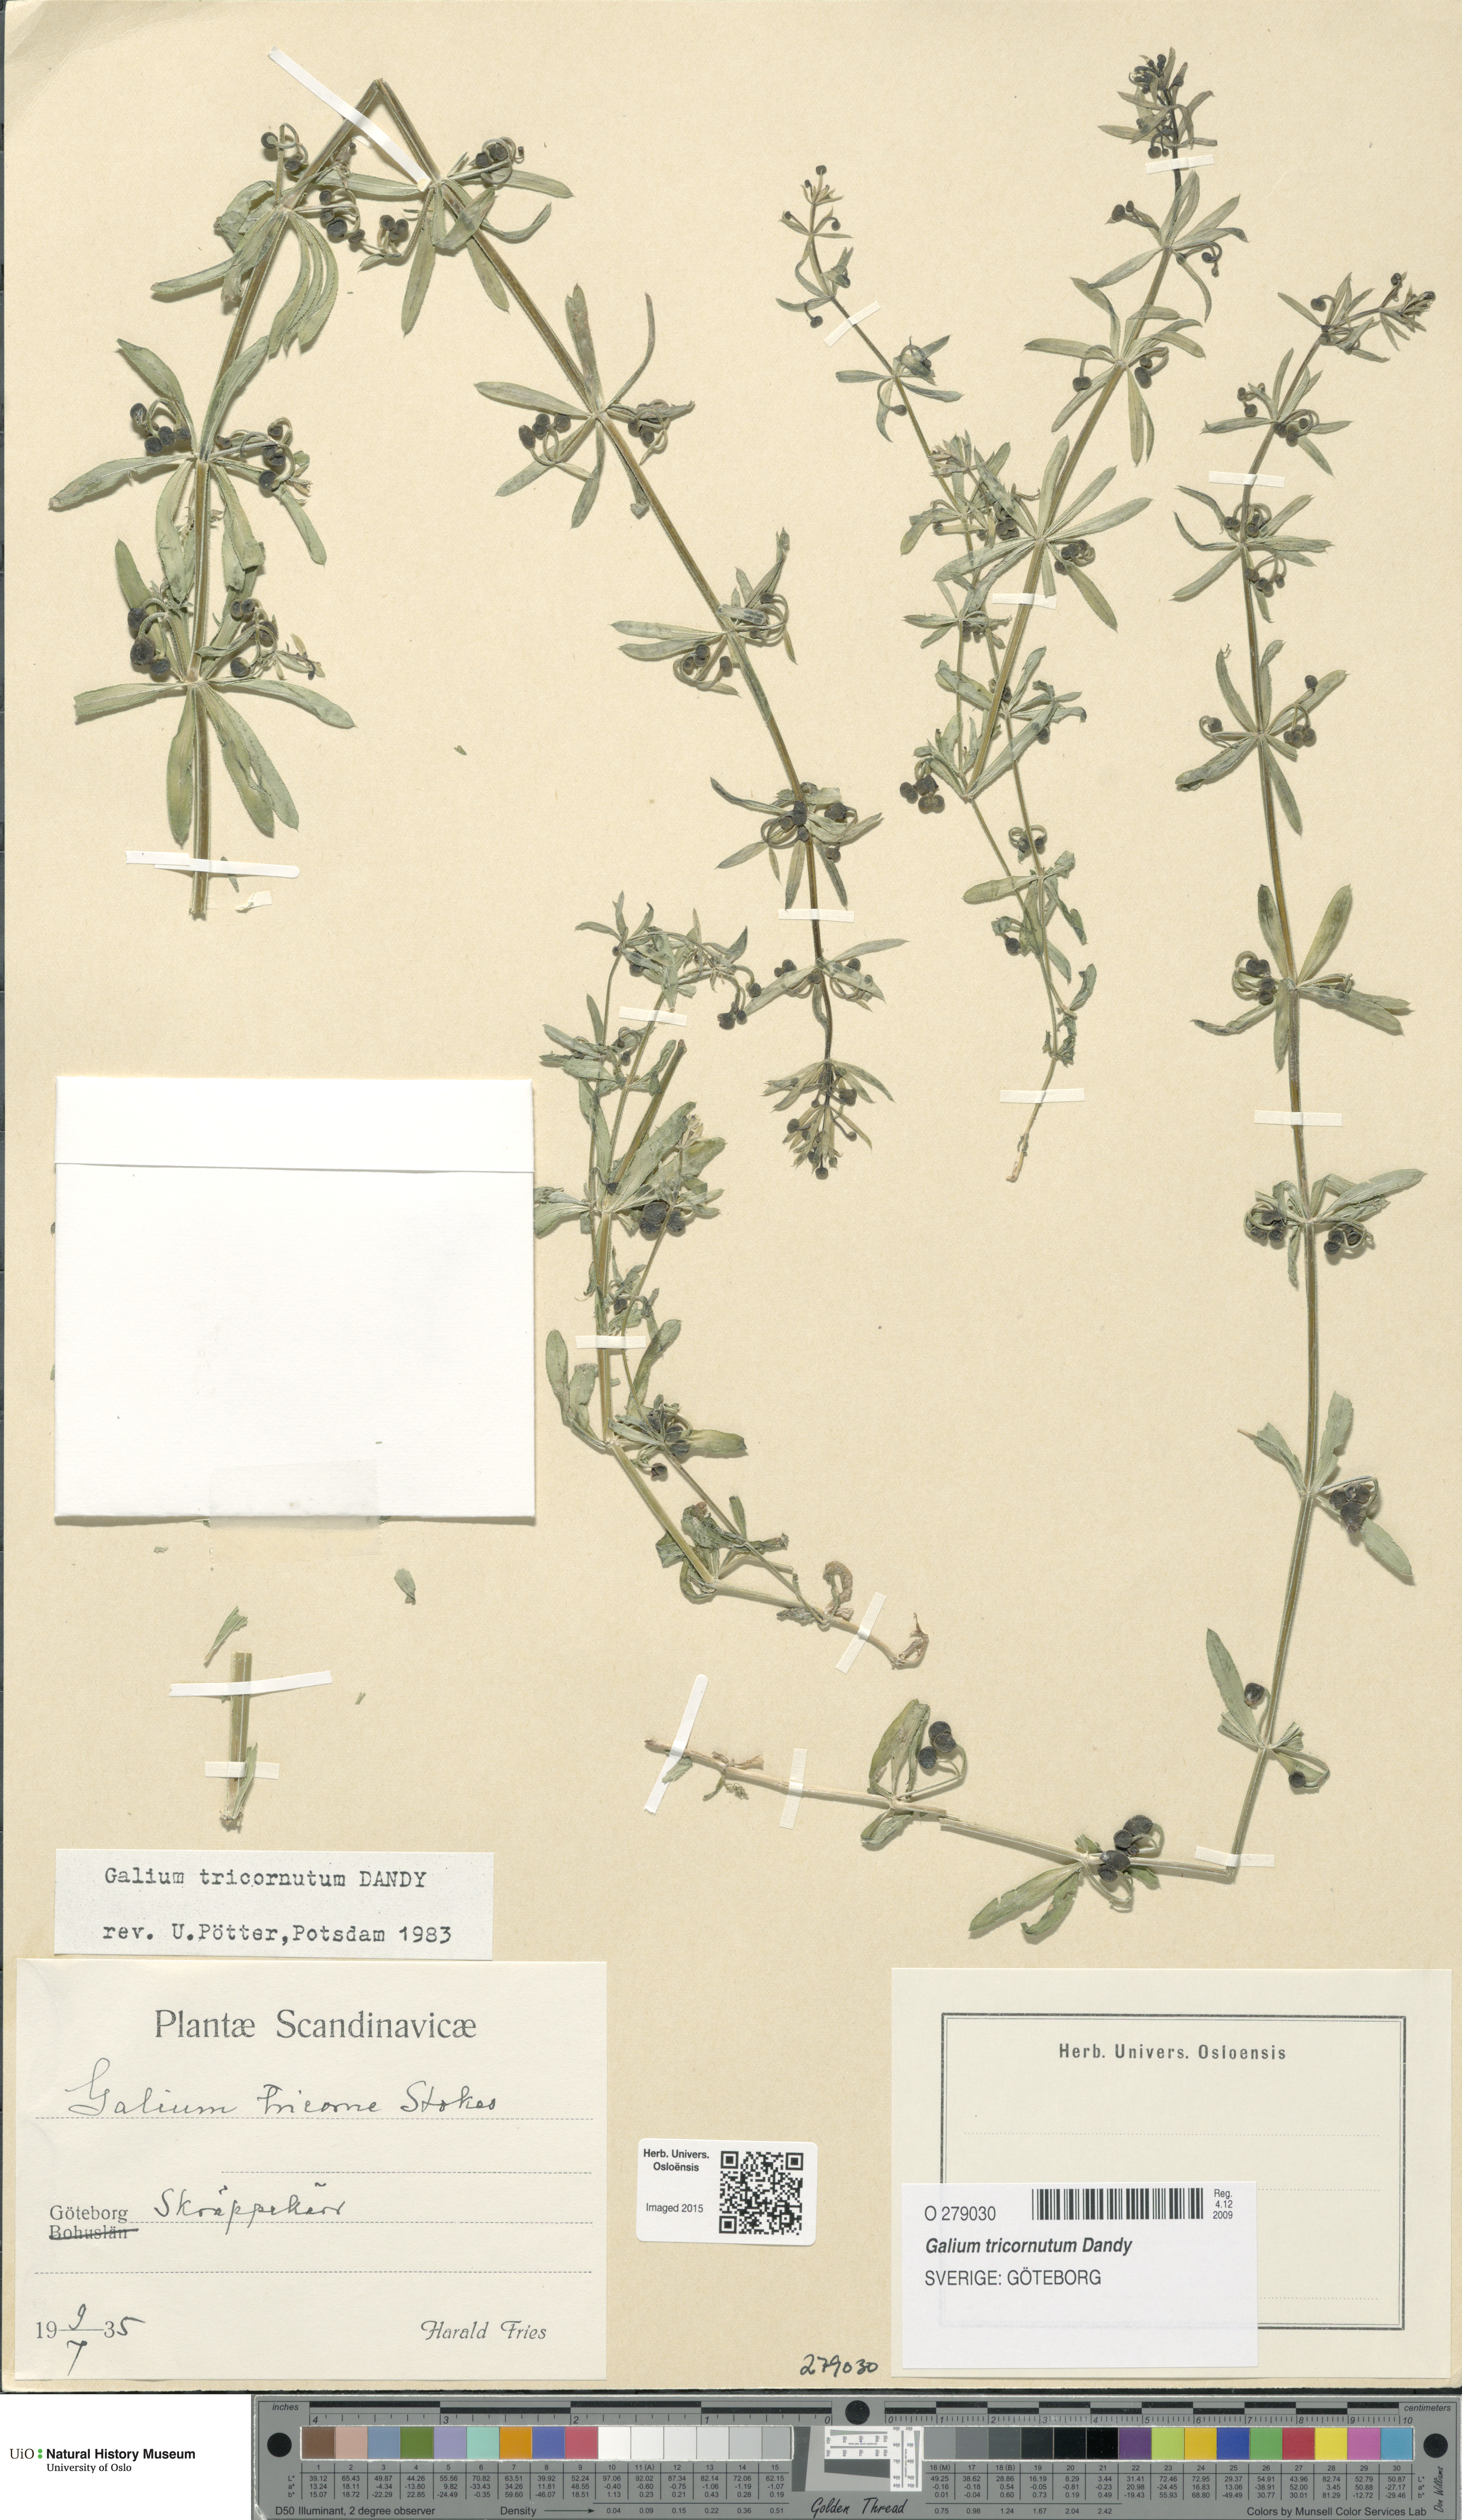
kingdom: Plantae
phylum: Tracheophyta
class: Magnoliopsida
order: Gentianales
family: Rubiaceae
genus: Galium
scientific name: Galium tricornutum
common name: Corn cleavers
